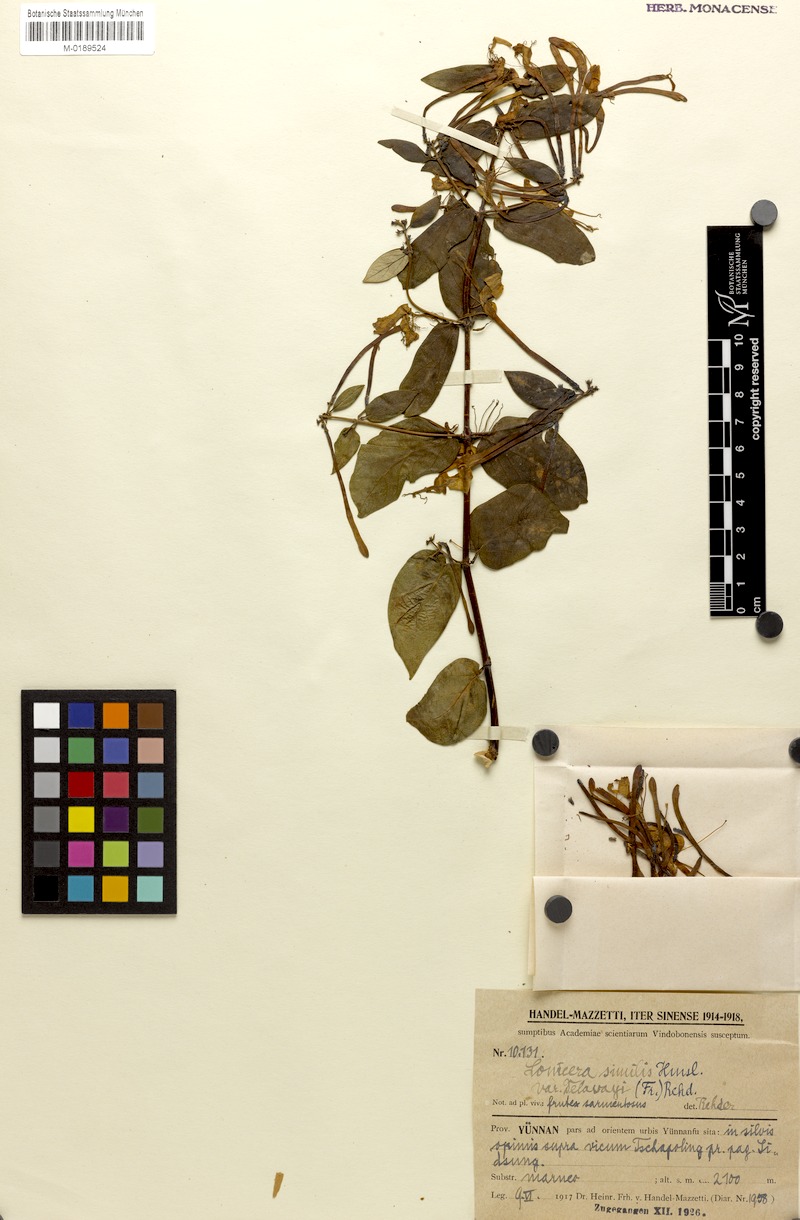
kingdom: Plantae
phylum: Tracheophyta
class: Magnoliopsida
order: Dipsacales
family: Caprifoliaceae
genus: Lonicera
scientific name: Lonicera similis
